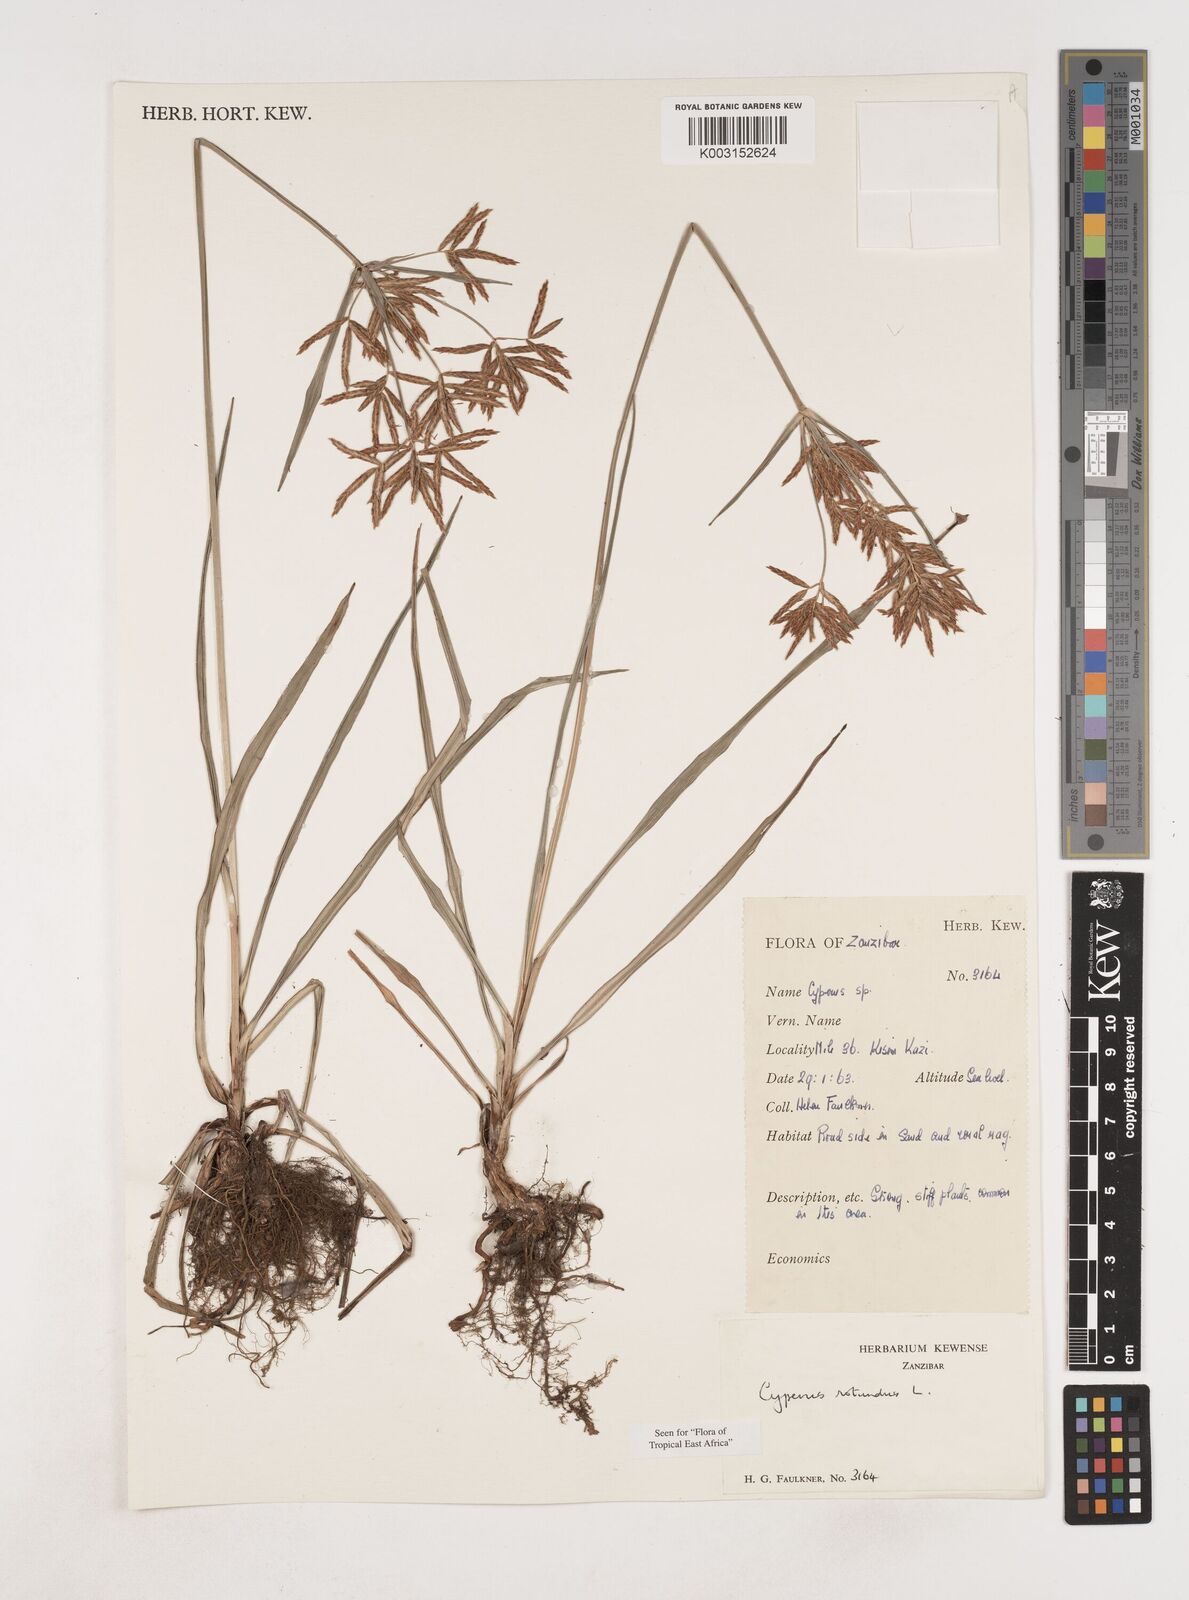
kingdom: Plantae
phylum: Tracheophyta
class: Liliopsida
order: Poales
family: Cyperaceae
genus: Cyperus
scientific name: Cyperus rotundus
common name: Nutgrass
